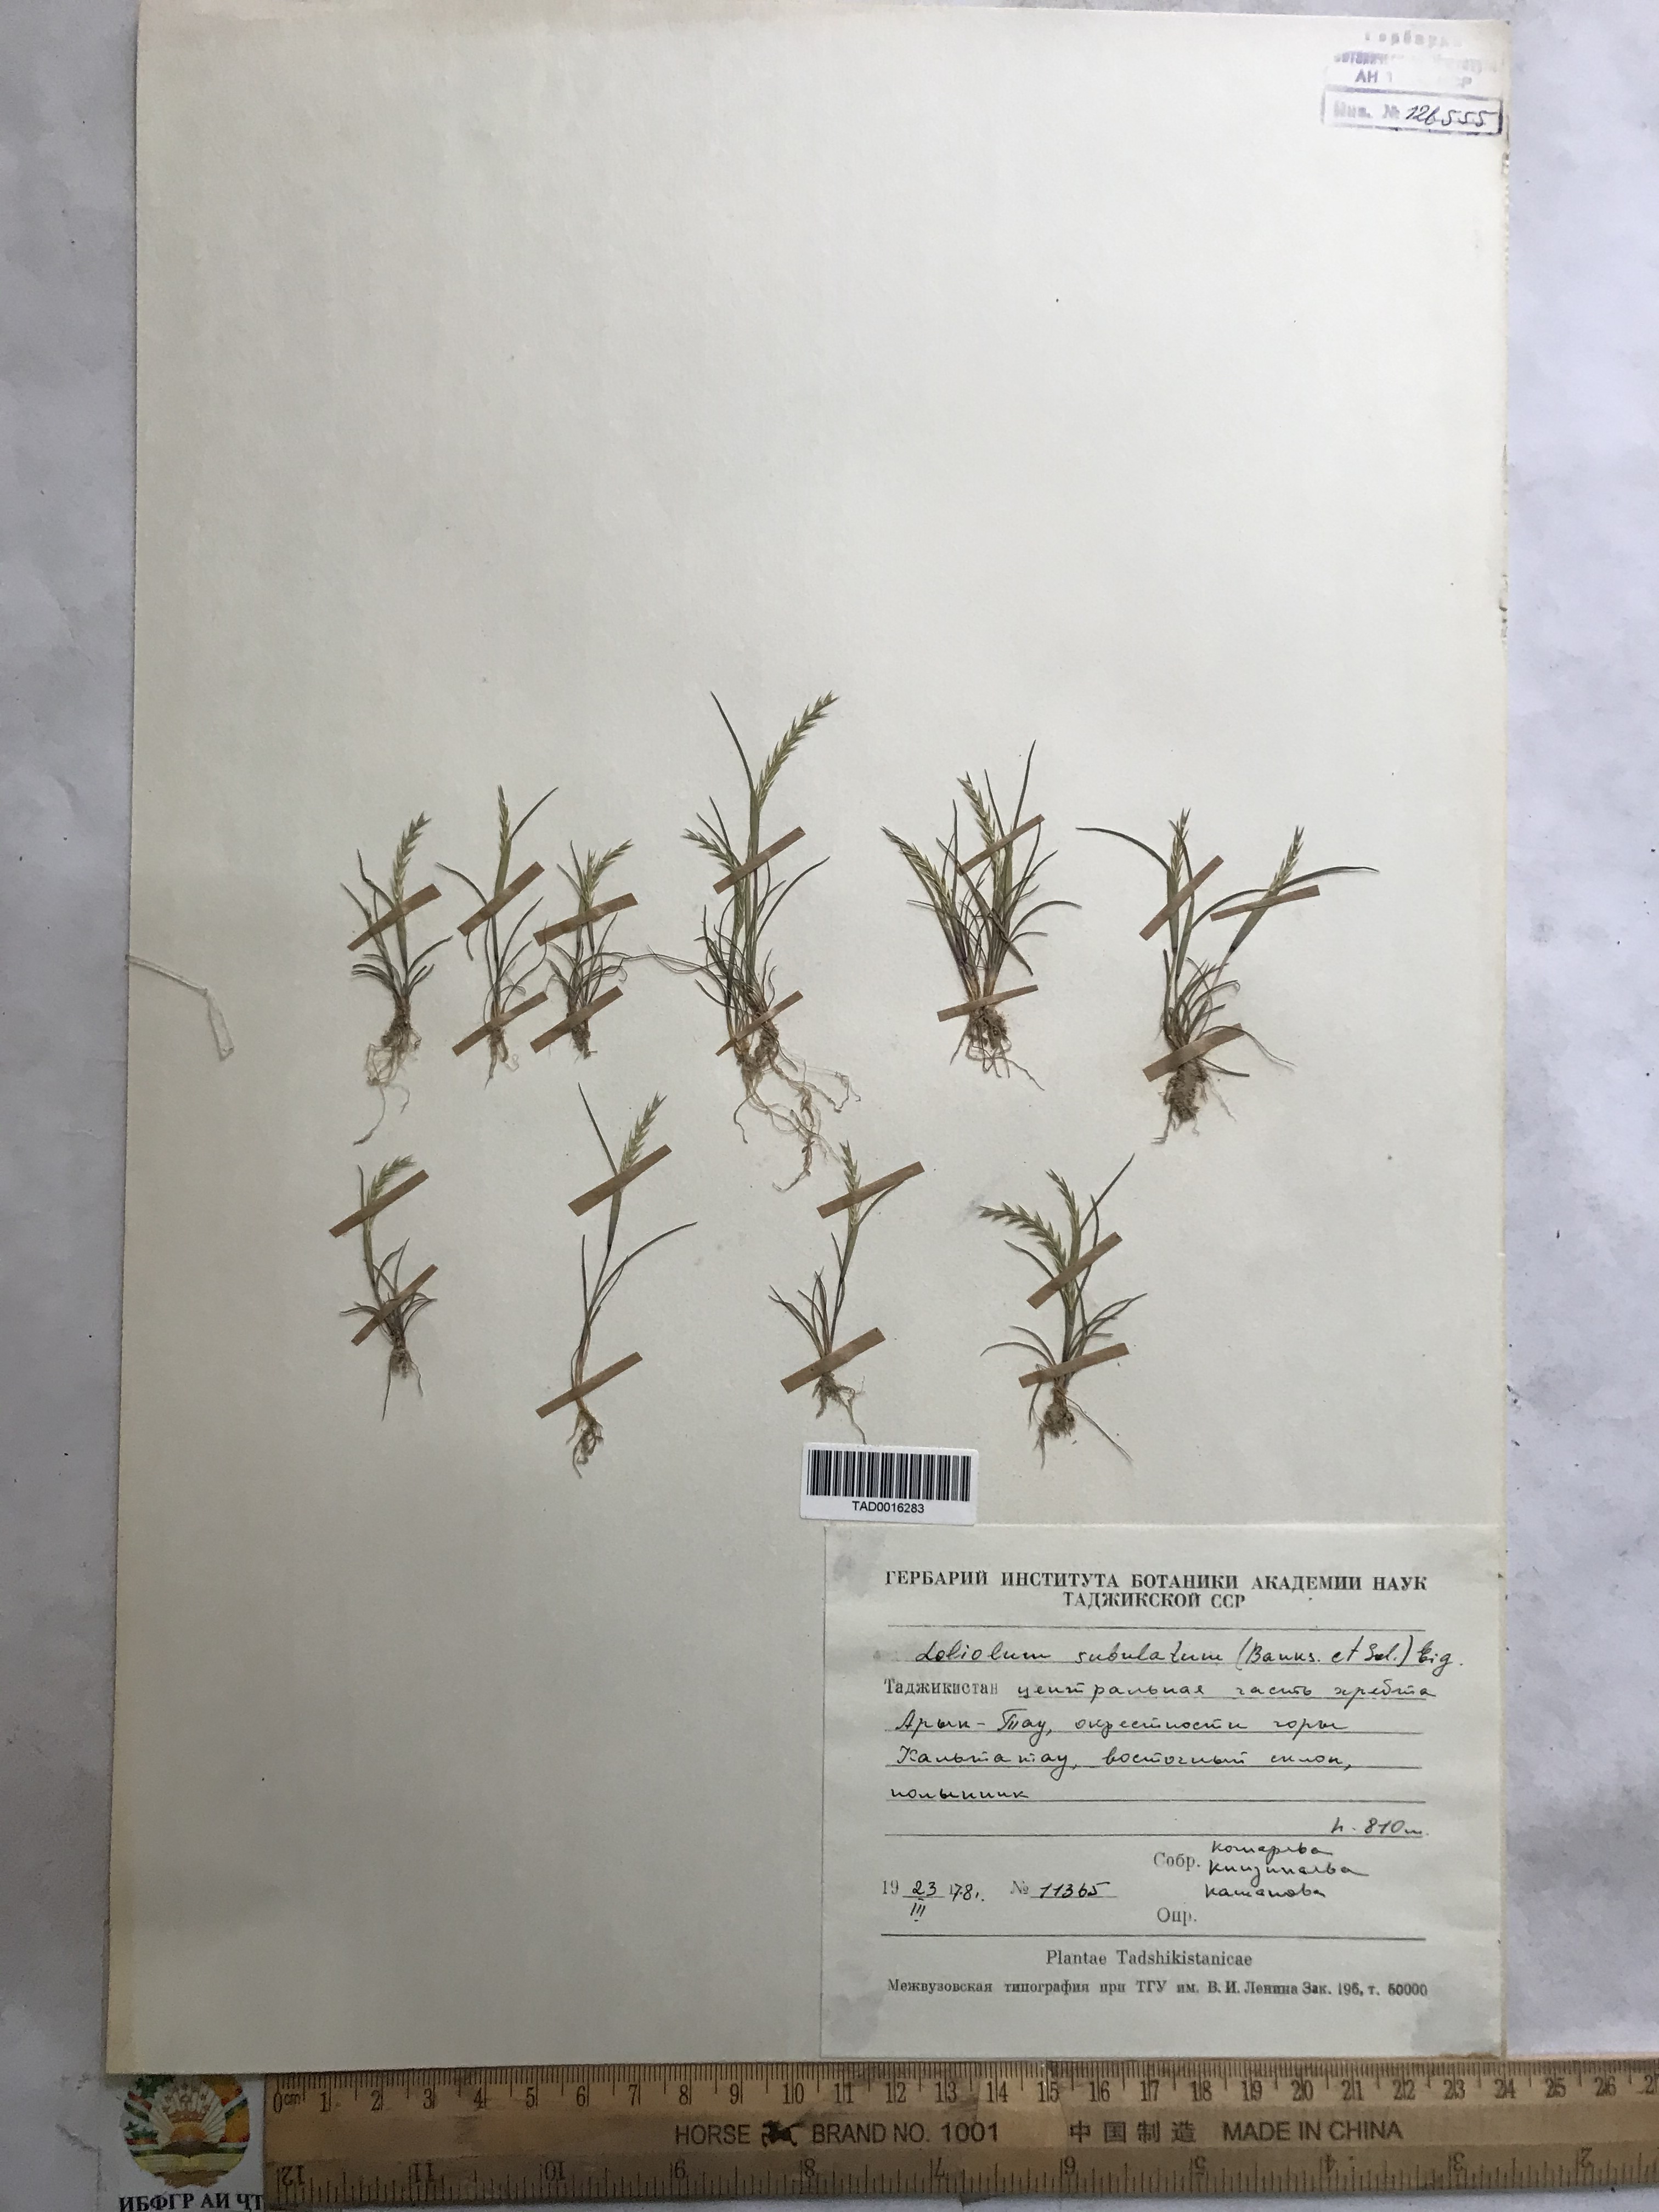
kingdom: Plantae
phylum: Tracheophyta
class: Liliopsida
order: Poales
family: Poaceae
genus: Festuca
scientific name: Festuca orientalis
